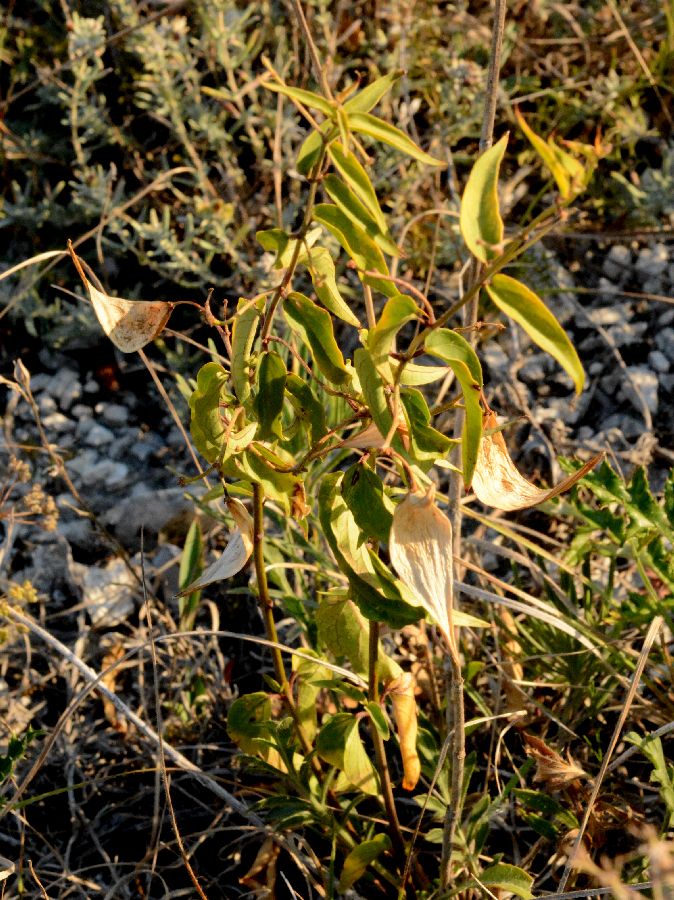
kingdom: Plantae
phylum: Tracheophyta
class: Magnoliopsida
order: Gentianales
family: Apocynaceae
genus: Vincetoxicum
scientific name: Vincetoxicum hirundinaria
